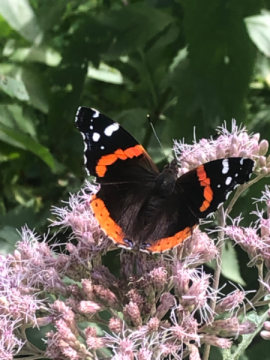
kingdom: Animalia
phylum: Arthropoda
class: Insecta
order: Lepidoptera
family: Nymphalidae
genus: Vanessa
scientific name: Vanessa atalanta
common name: Red Admiral
